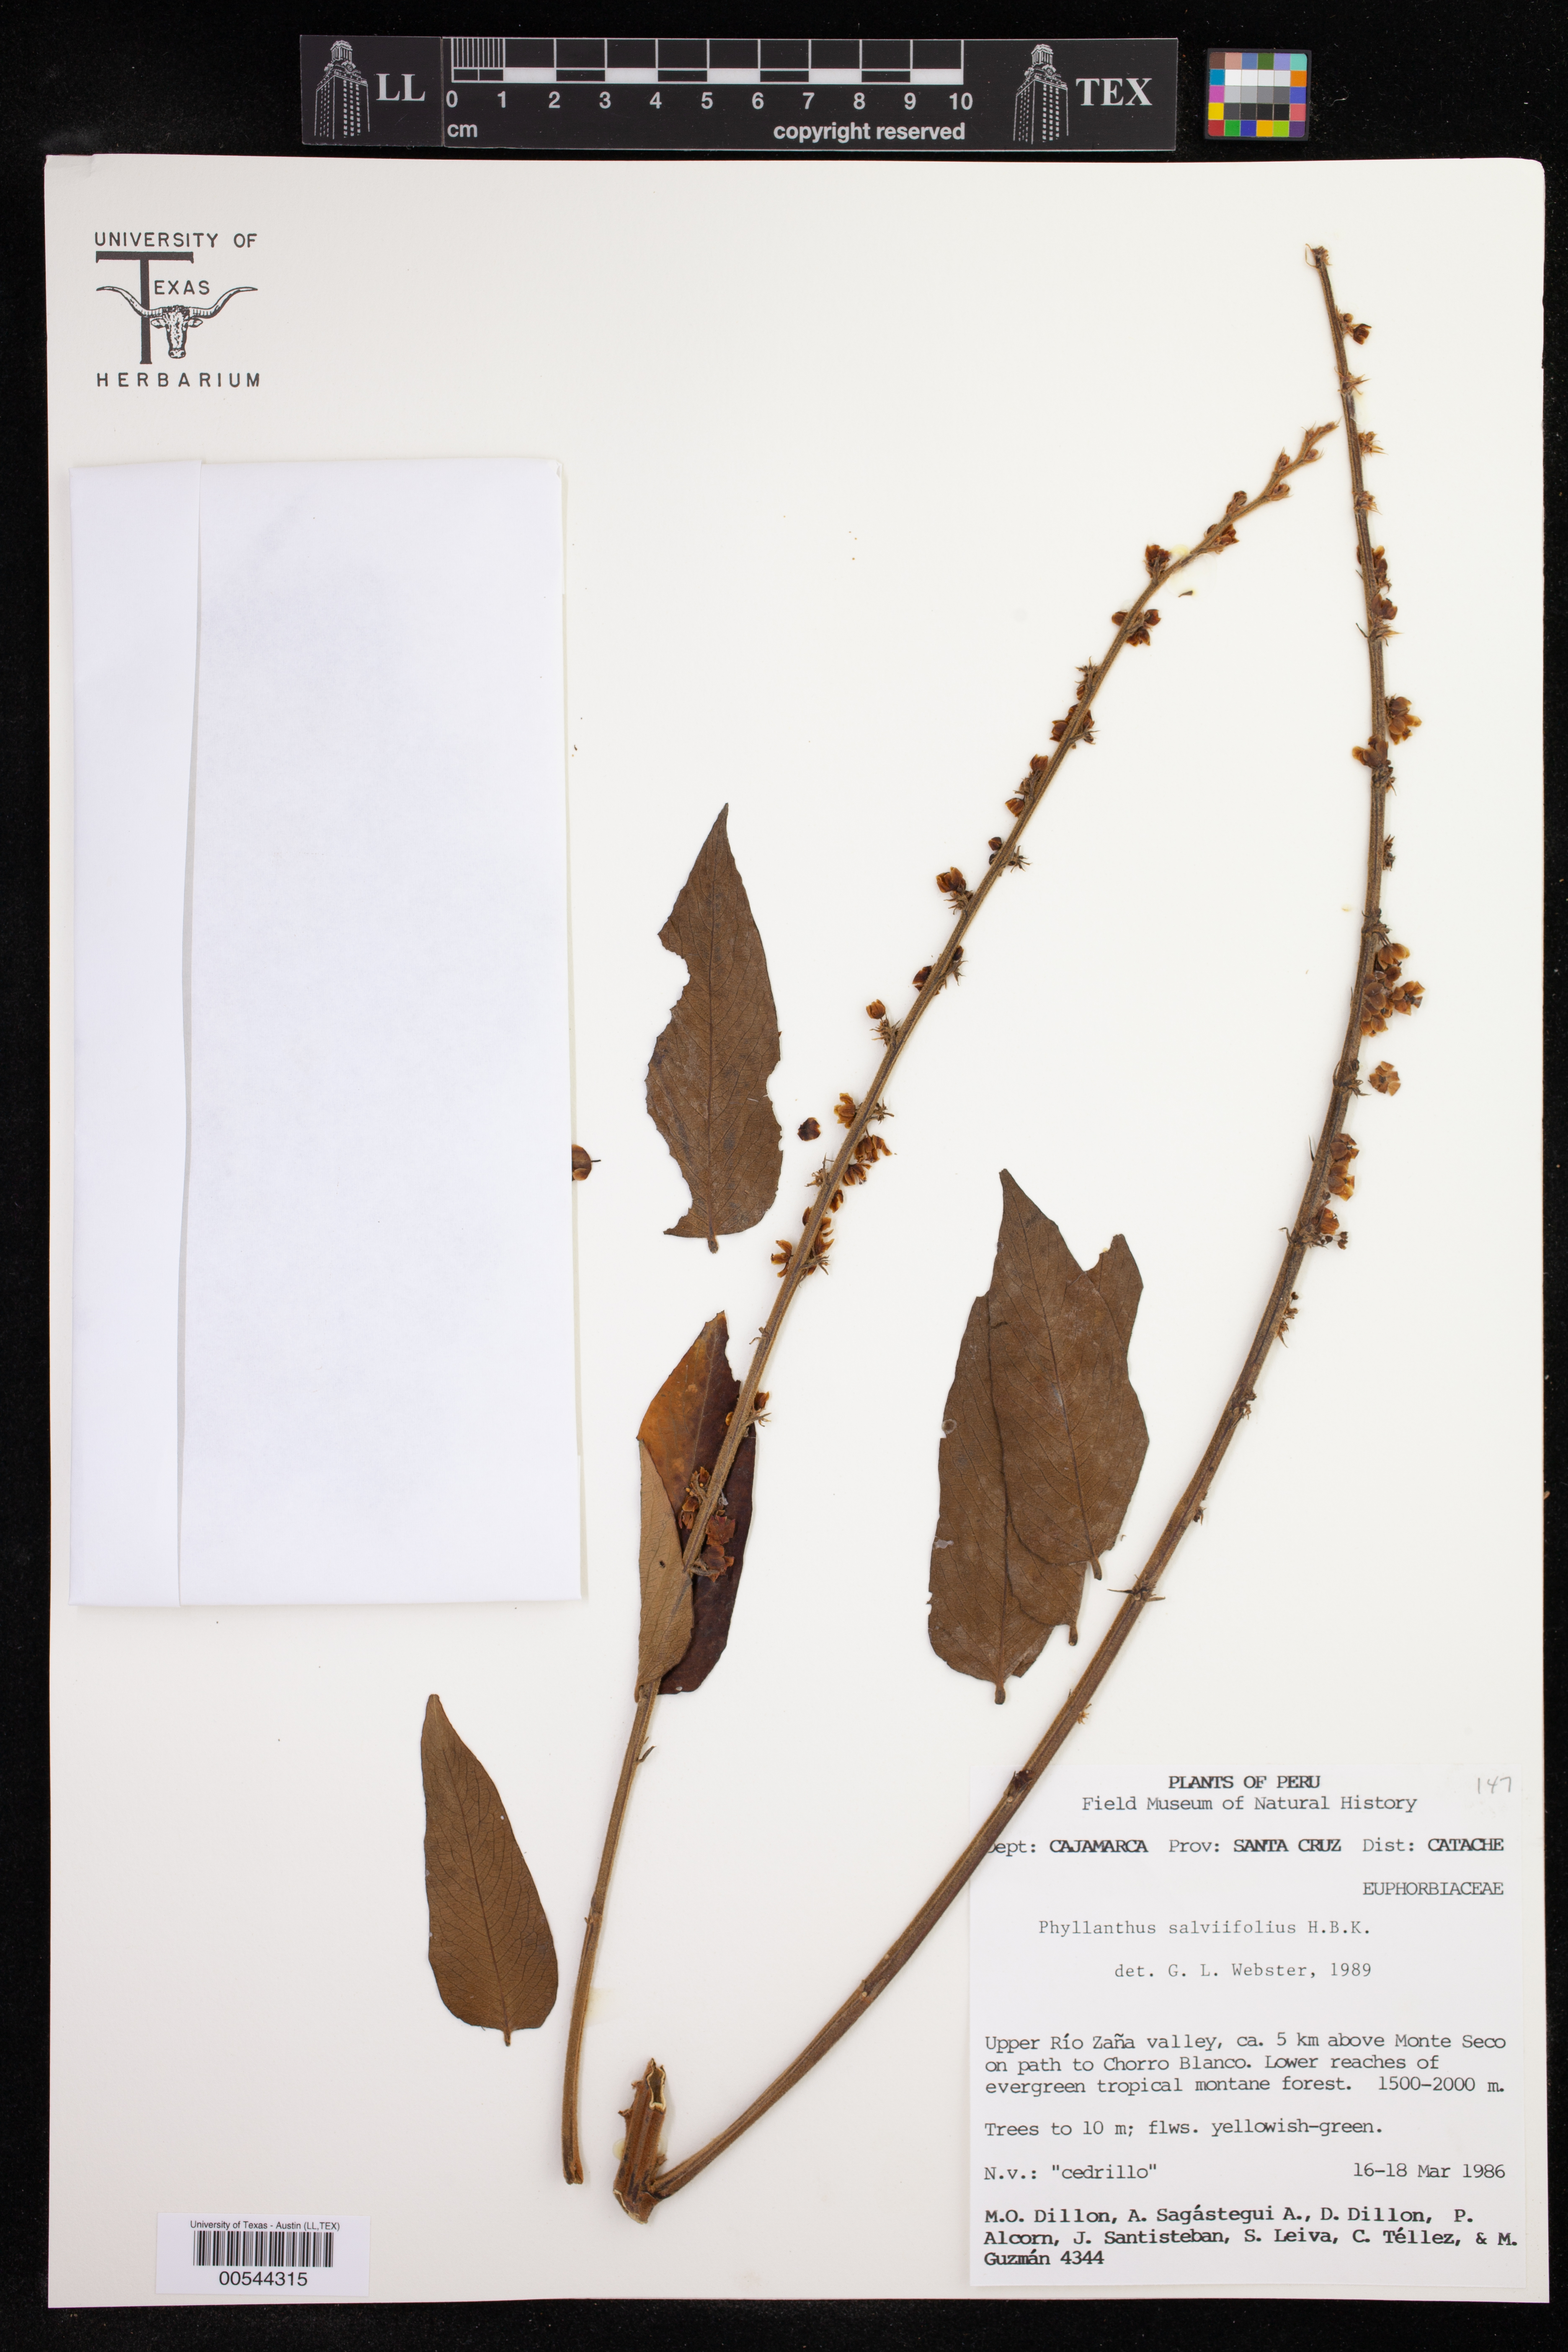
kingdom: Plantae
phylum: Tracheophyta
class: Magnoliopsida
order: Malpighiales
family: Phyllanthaceae
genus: Phyllanthus
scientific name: Phyllanthus salviifolius
